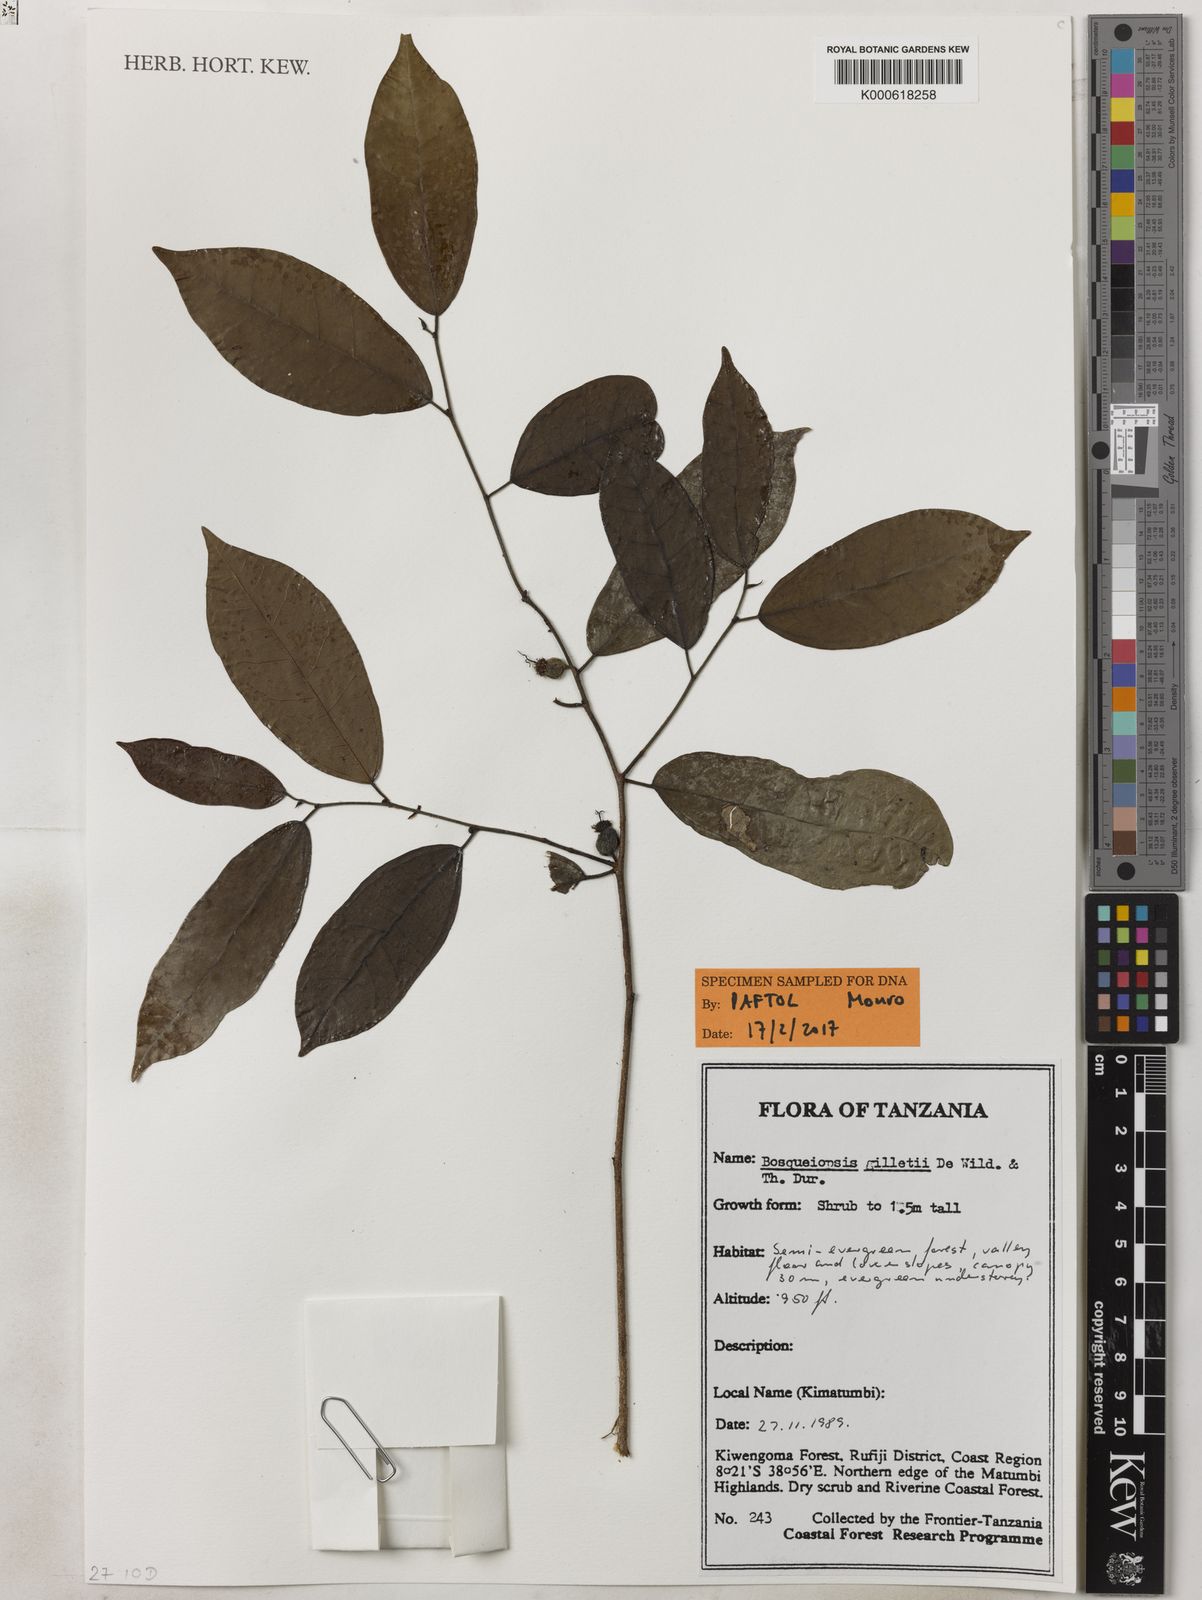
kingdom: Plantae
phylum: Tracheophyta
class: Magnoliopsida
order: Rosales
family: Moraceae
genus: Bosqueiopsis
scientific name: Bosqueiopsis gilletii
